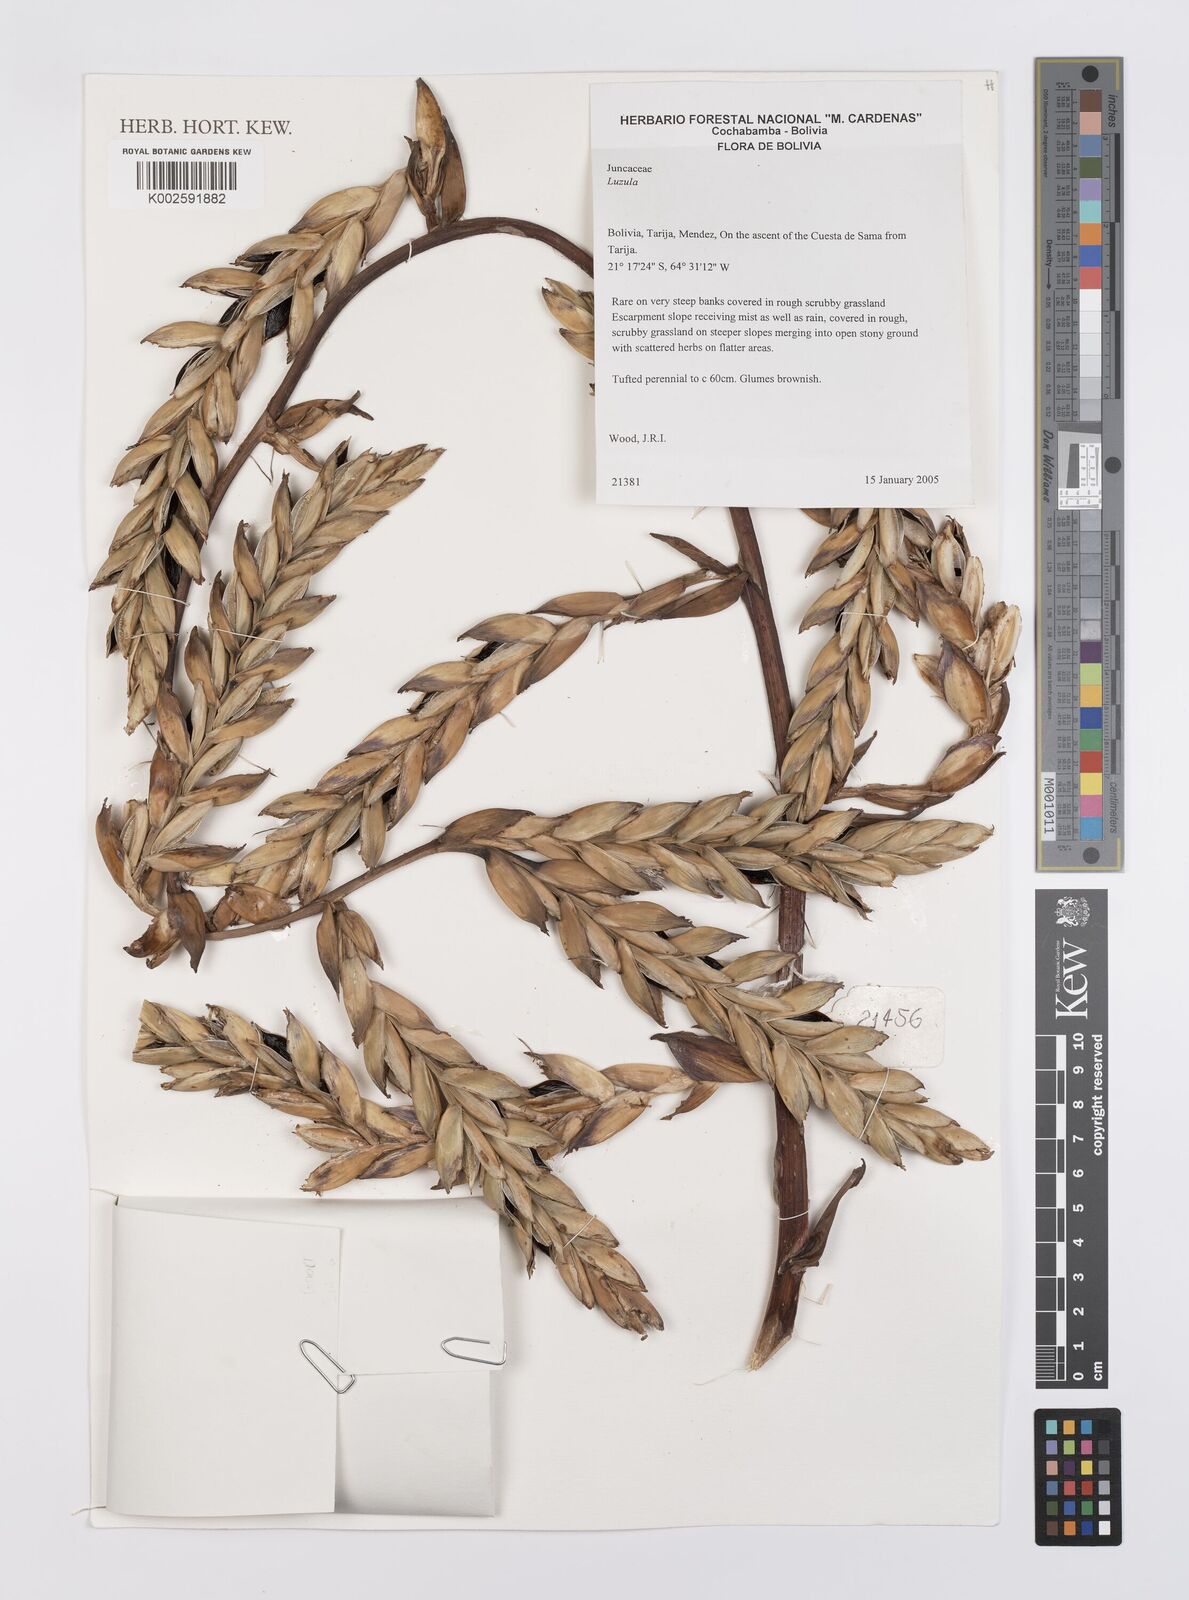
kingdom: Plantae
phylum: Tracheophyta
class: Liliopsida
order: Poales
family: Bromeliaceae
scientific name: Bromeliaceae
